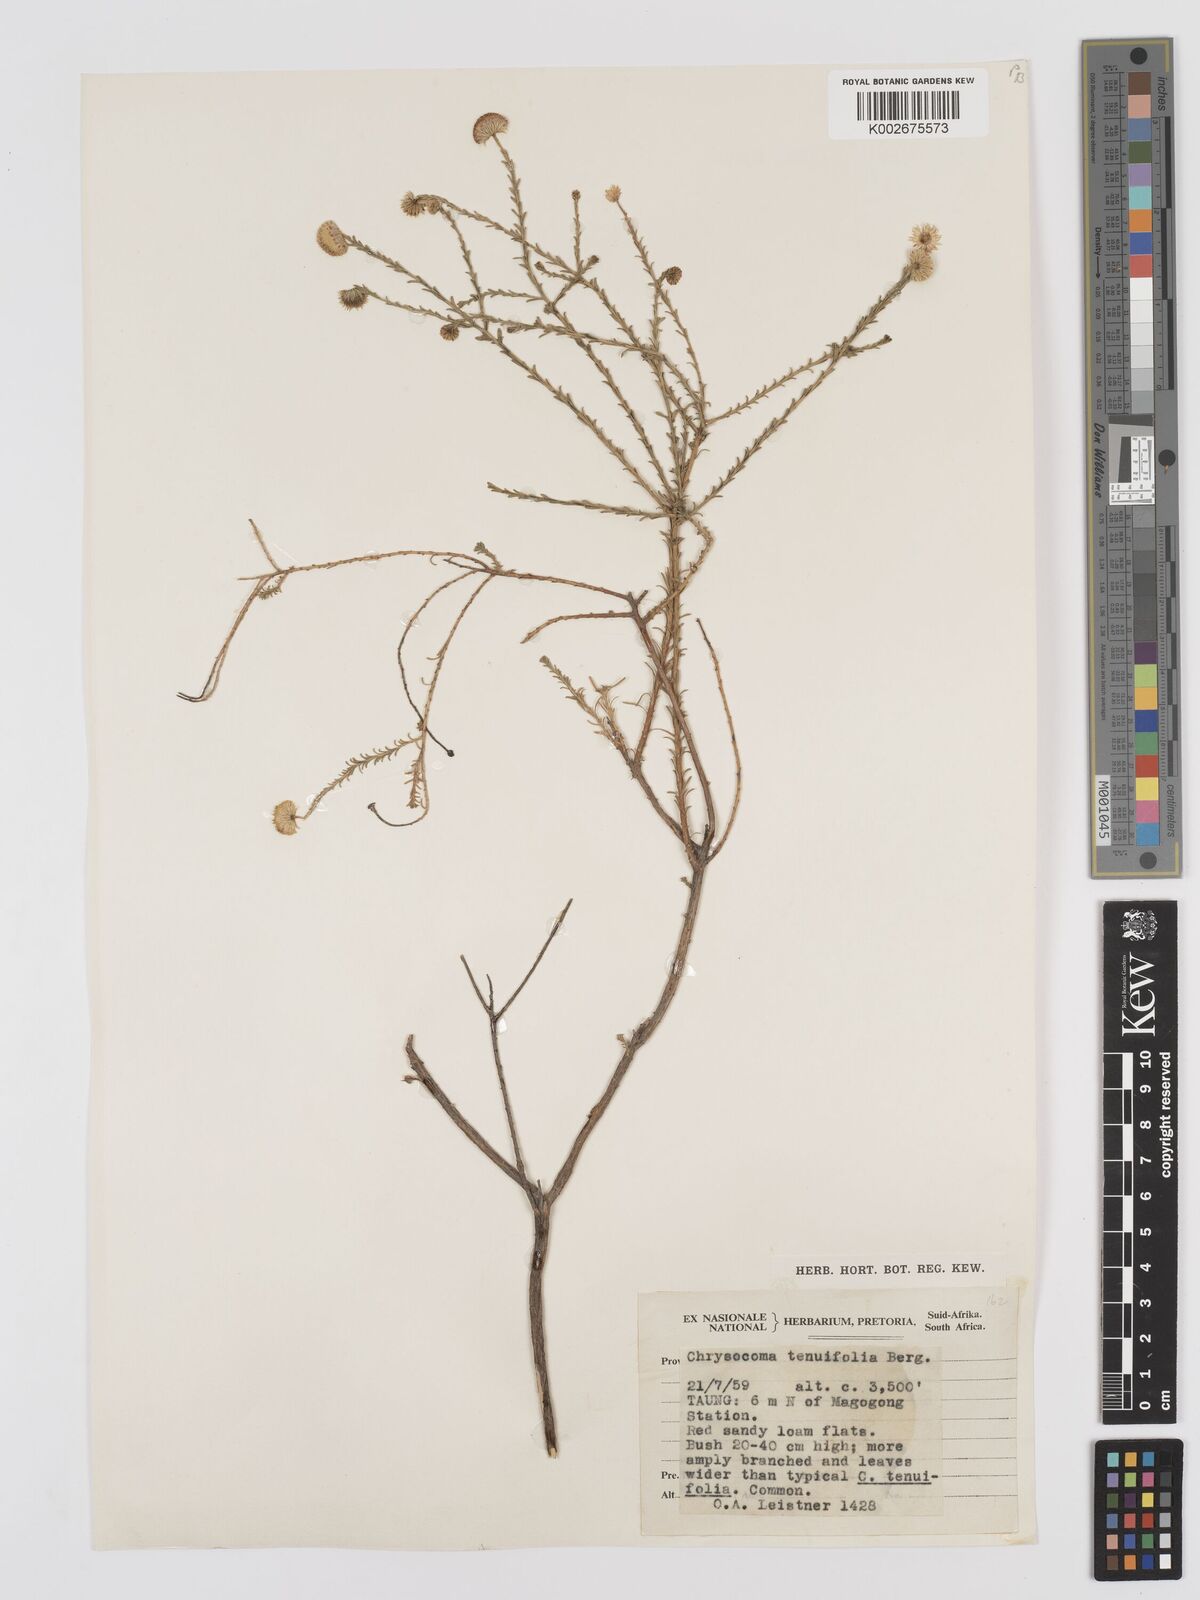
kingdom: Plantae
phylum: Tracheophyta
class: Magnoliopsida
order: Asterales
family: Asteraceae
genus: Chrysocoma
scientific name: Chrysocoma ciliata
